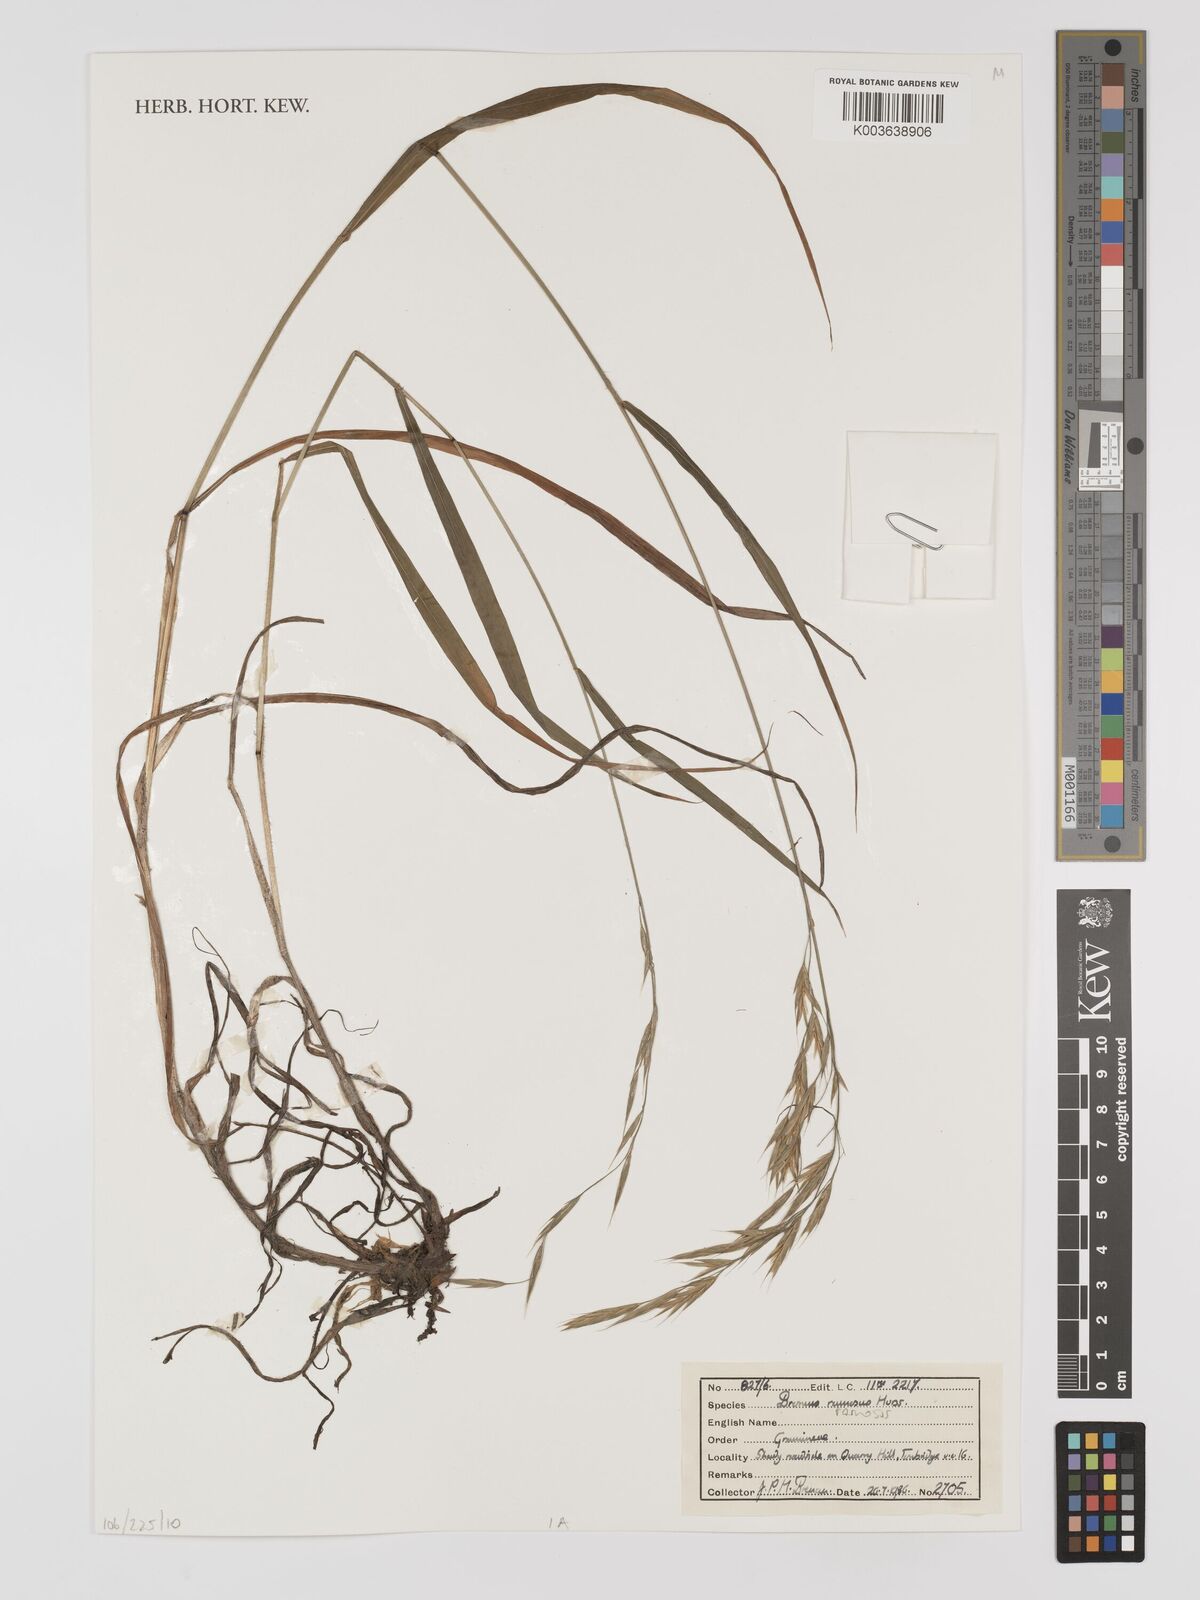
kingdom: Plantae
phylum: Tracheophyta
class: Liliopsida
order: Poales
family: Poaceae
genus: Bromus
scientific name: Bromus ramosus
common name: Hairy brome
